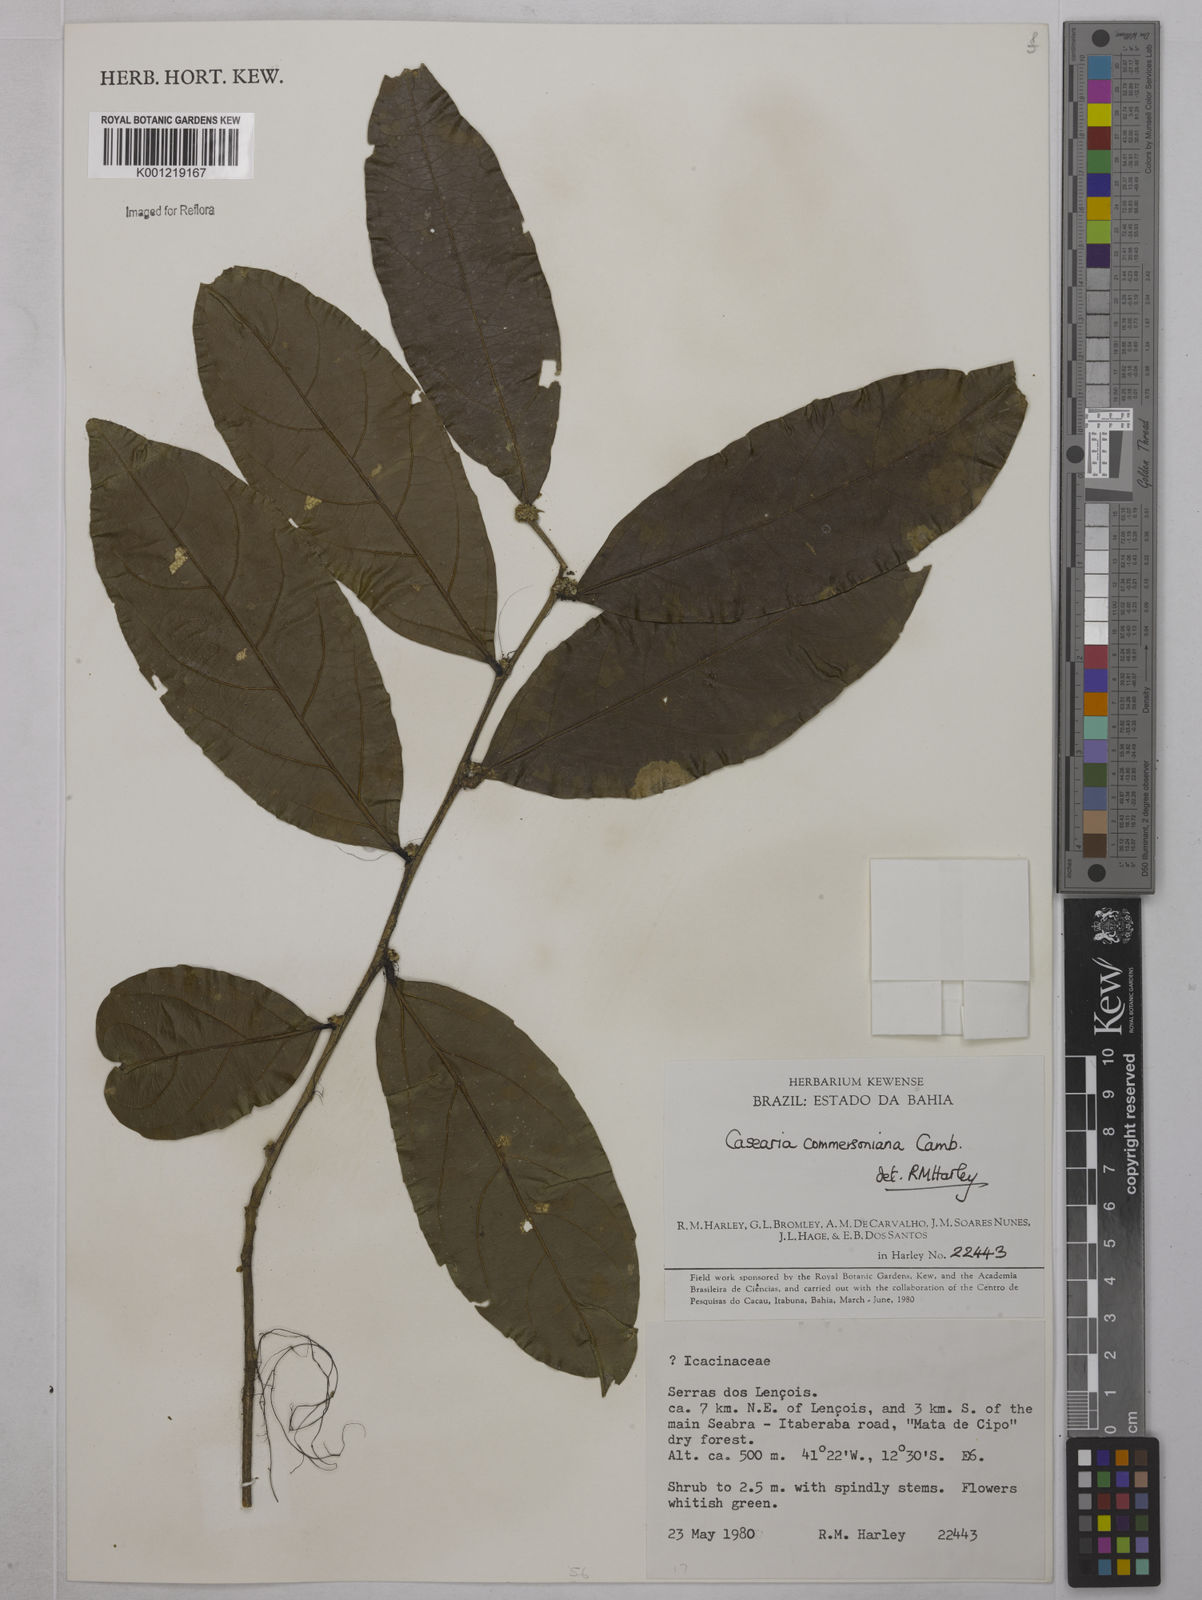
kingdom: Plantae
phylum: Tracheophyta
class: Magnoliopsida
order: Malpighiales
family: Salicaceae
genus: Piparea
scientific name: Piparea dentata
